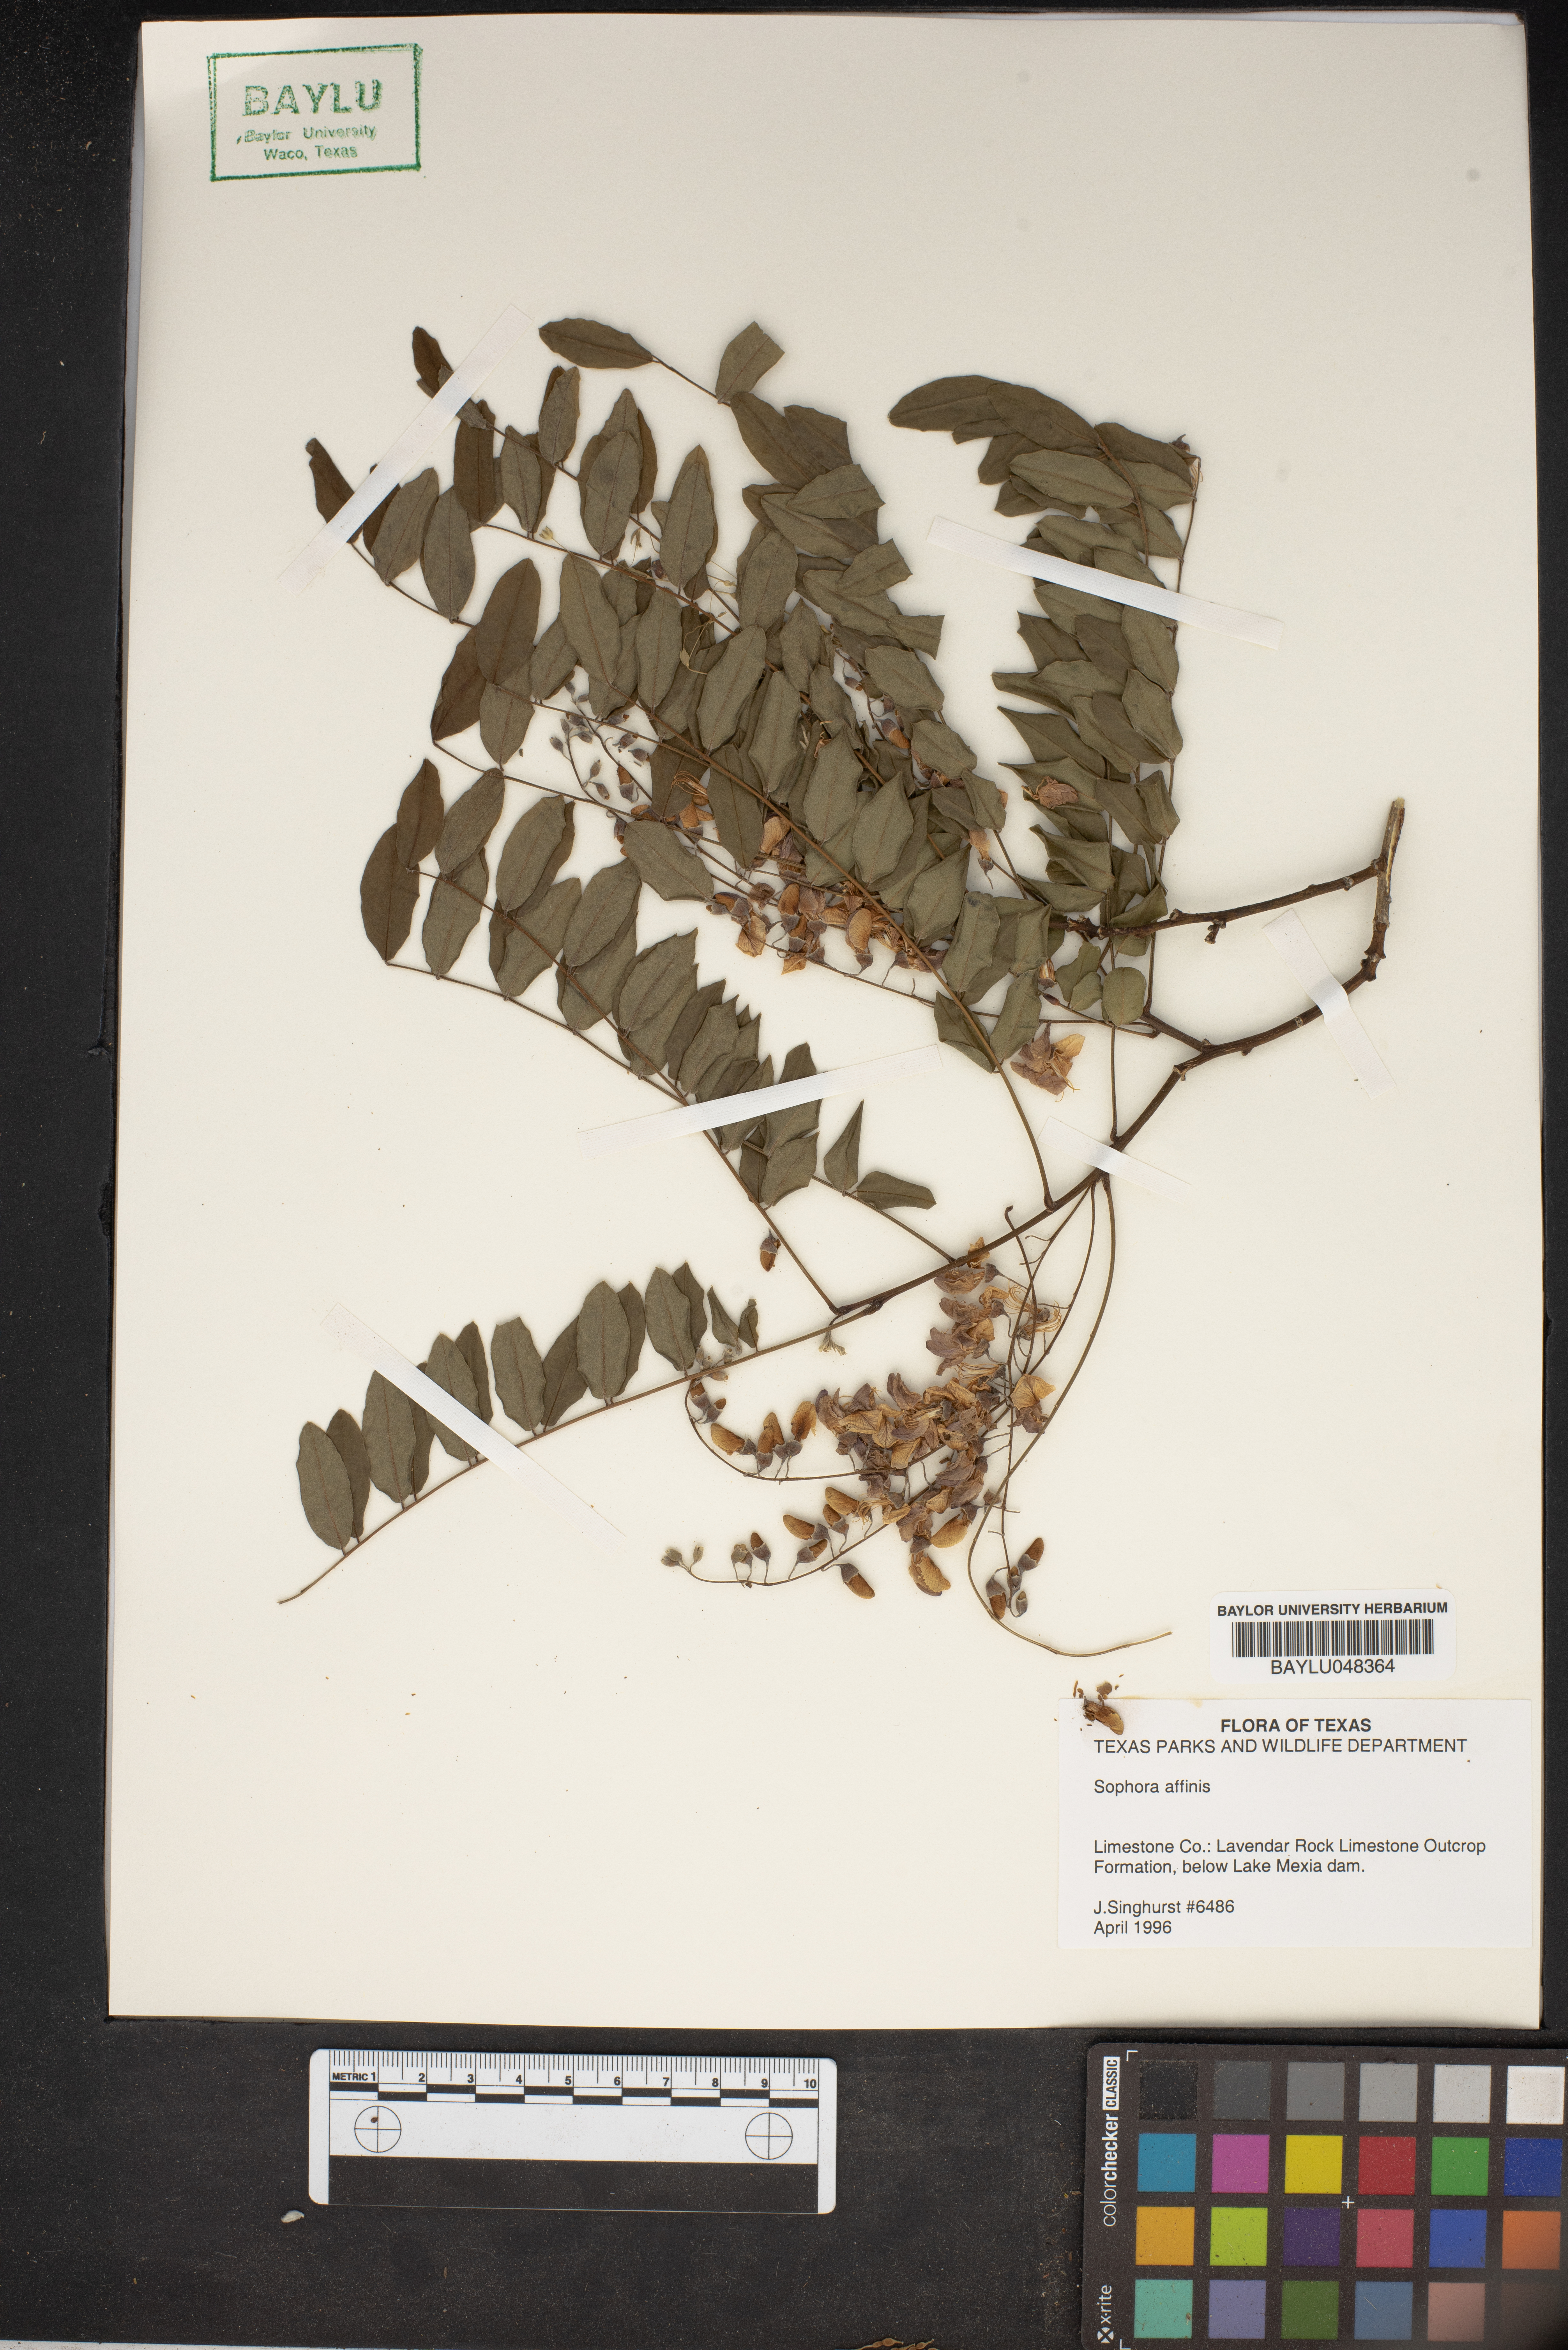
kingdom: Plantae
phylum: Tracheophyta
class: Magnoliopsida
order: Fabales
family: Fabaceae
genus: Styphnolobium
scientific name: Styphnolobium affine
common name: Texas sophora
